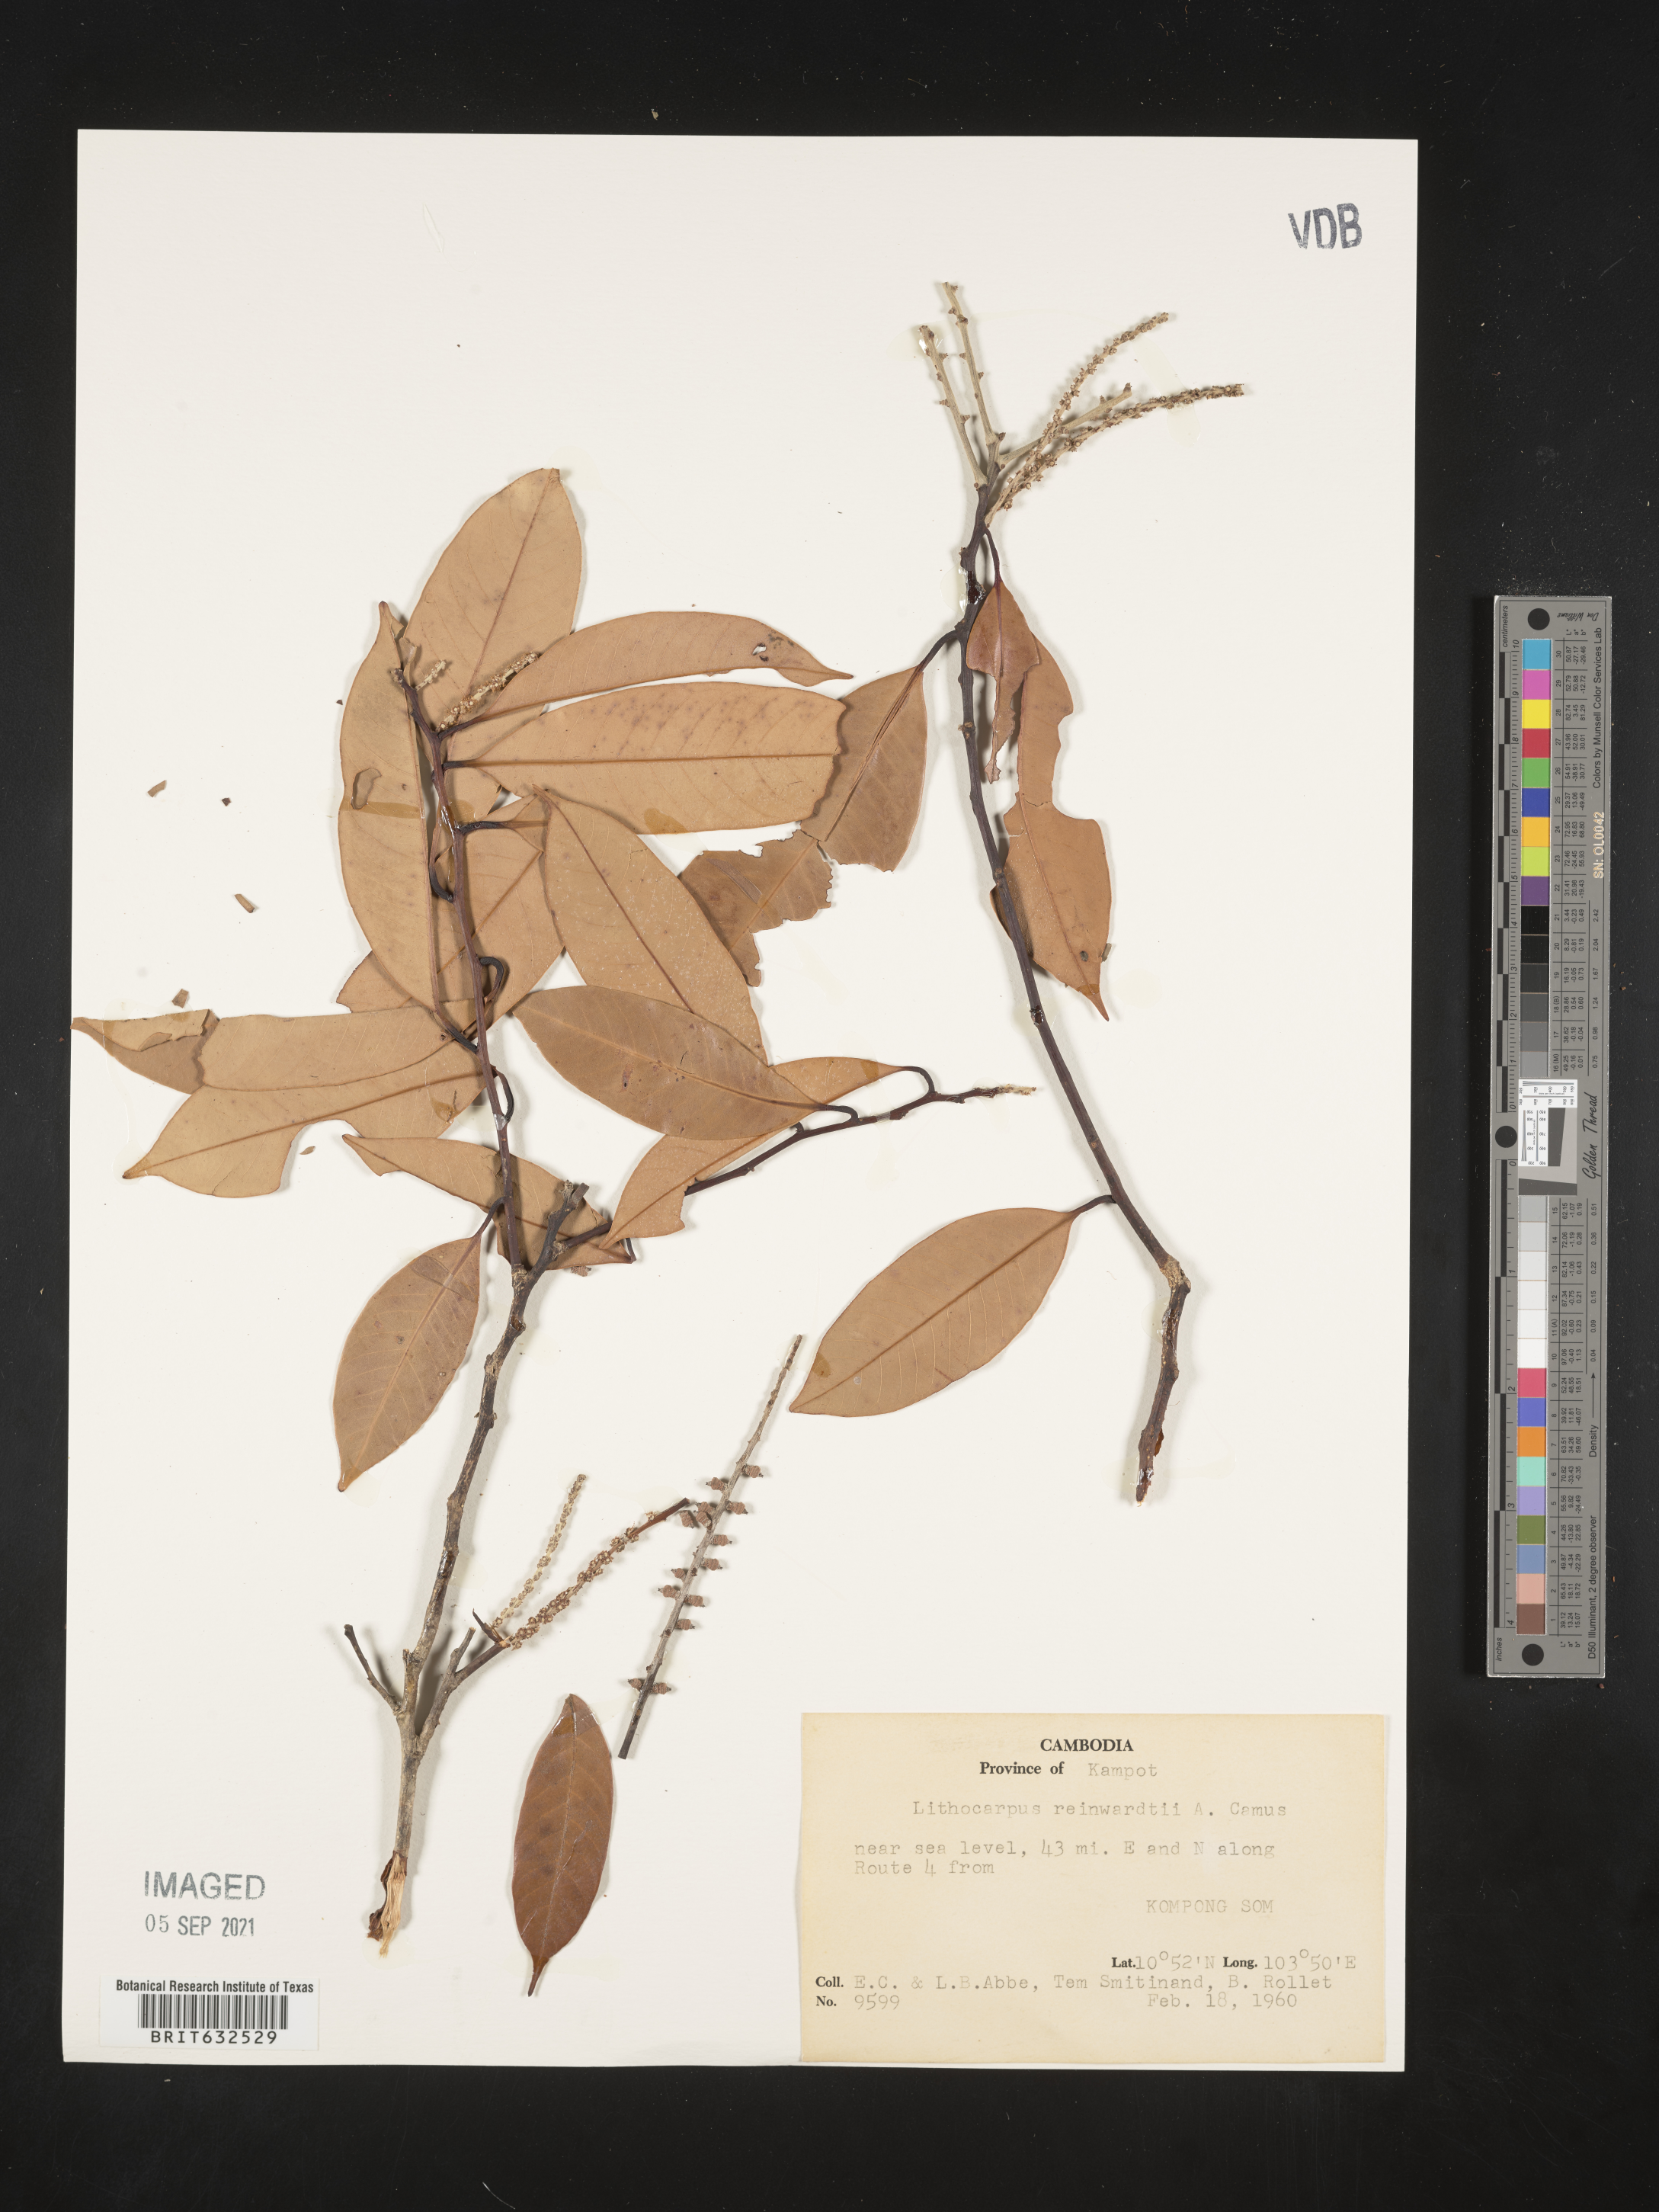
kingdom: Plantae
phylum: Tracheophyta
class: Magnoliopsida
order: Fagales
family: Fagaceae
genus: Lithocarpus
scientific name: Lithocarpus
